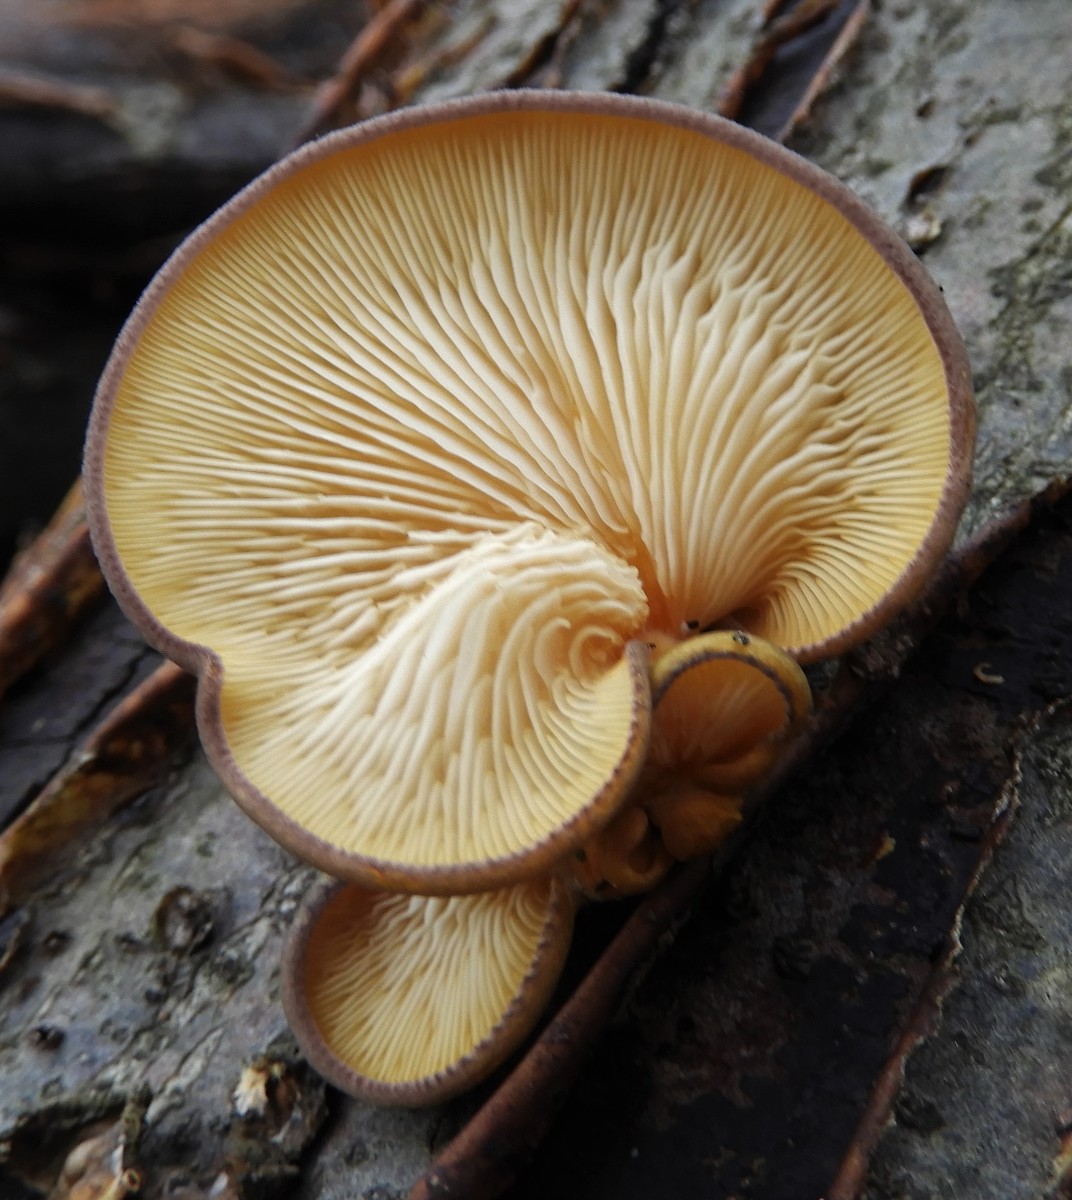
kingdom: Fungi
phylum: Basidiomycota
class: Agaricomycetes
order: Agaricales
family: Sarcomyxaceae
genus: Sarcomyxa
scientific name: Sarcomyxa serotina
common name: gummihat
